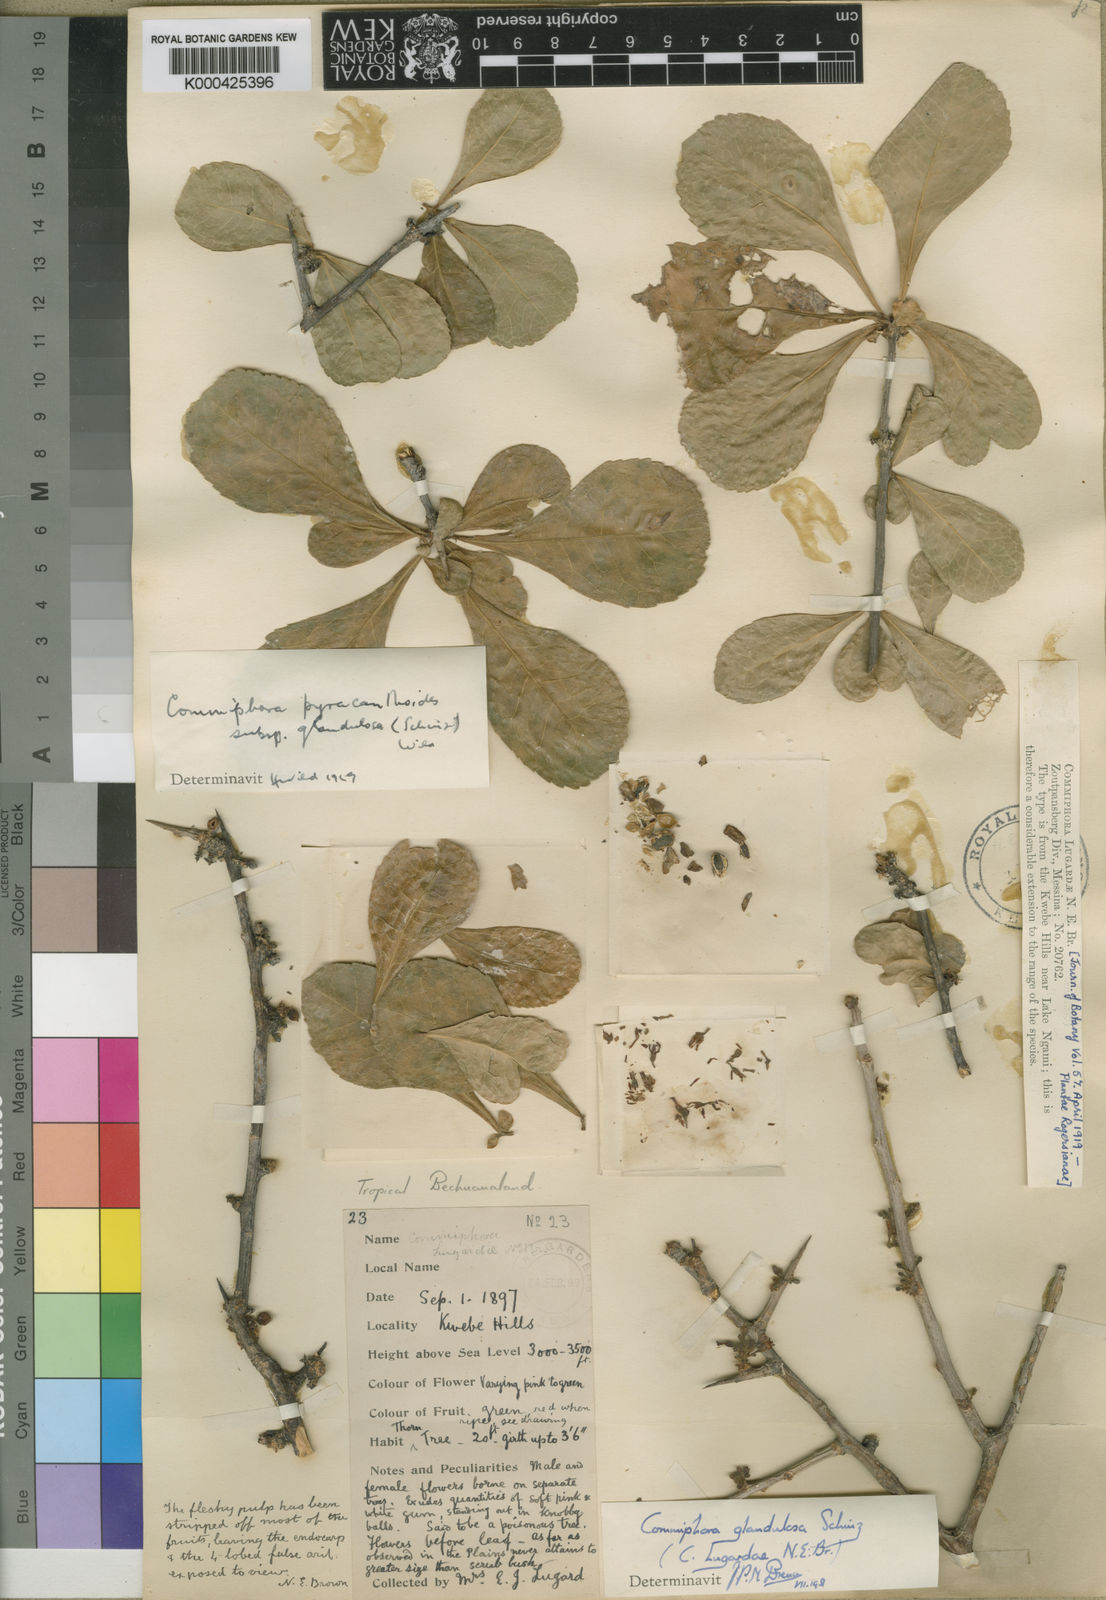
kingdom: Plantae
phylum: Tracheophyta
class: Magnoliopsida
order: Sapindales
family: Burseraceae
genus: Commiphora
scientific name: Commiphora glandulosa
